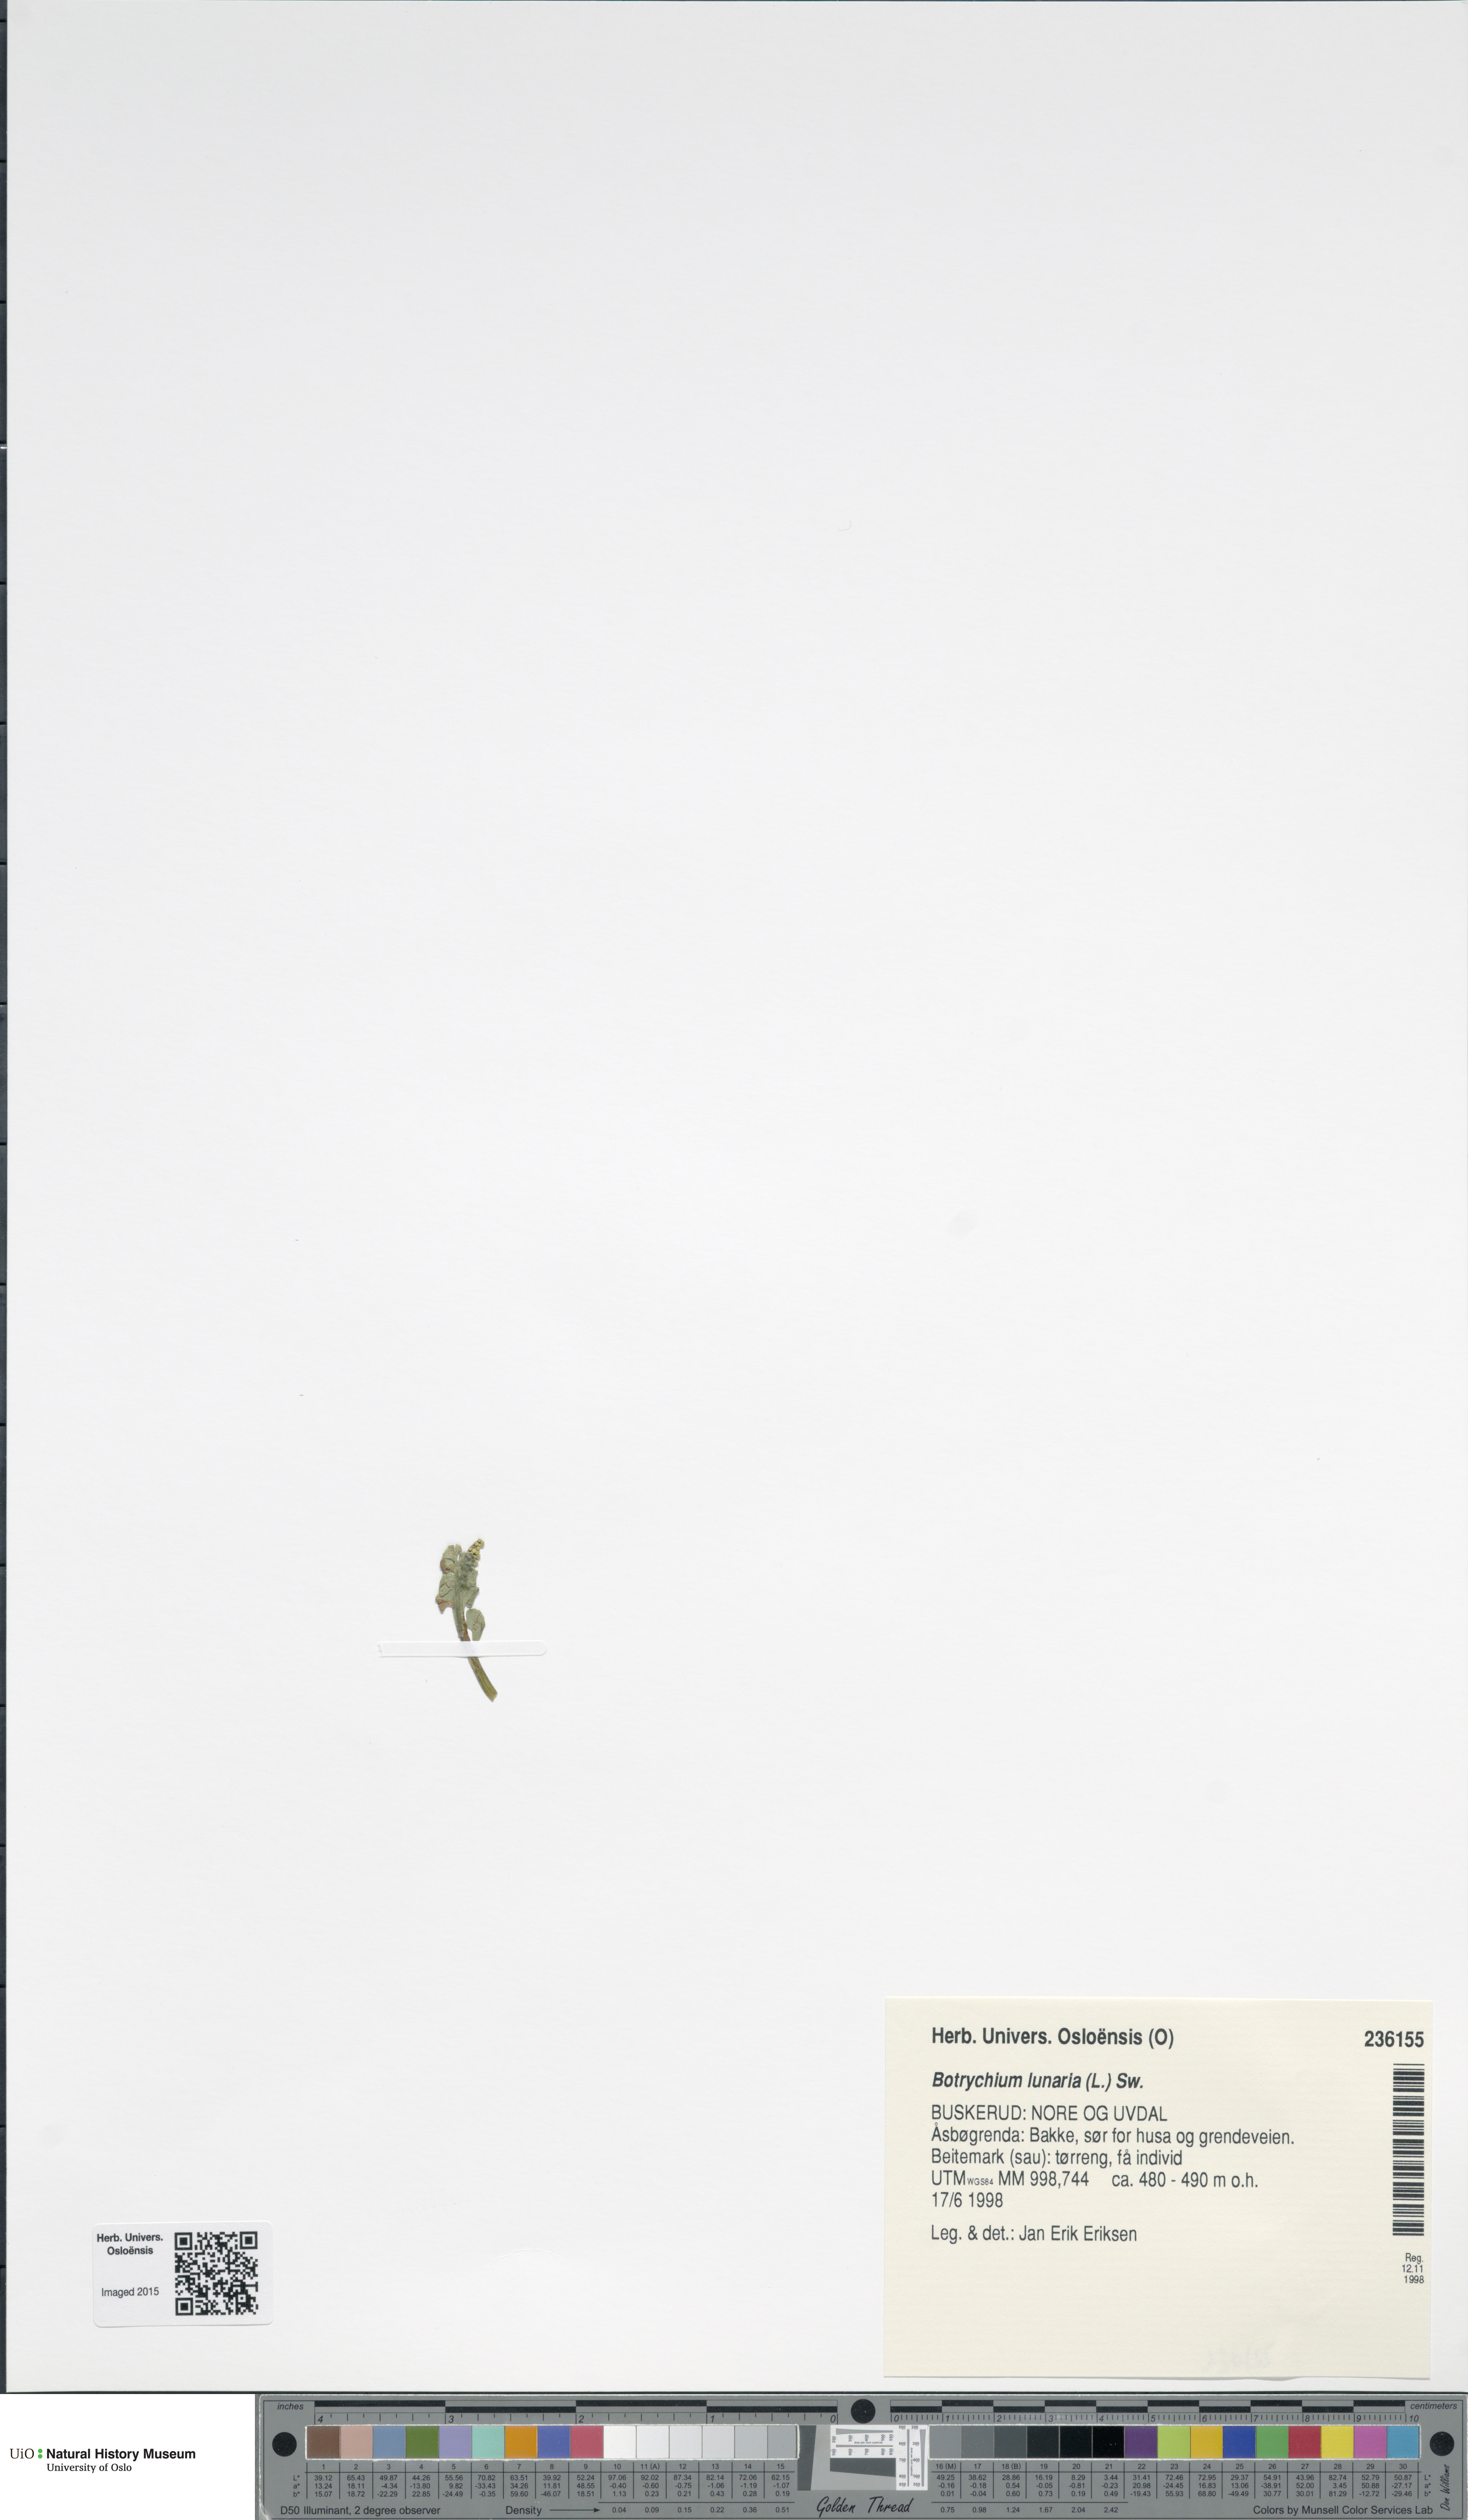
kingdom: Plantae
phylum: Tracheophyta
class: Polypodiopsida
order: Ophioglossales
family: Ophioglossaceae
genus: Botrychium
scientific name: Botrychium lunaria
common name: Moonwort
